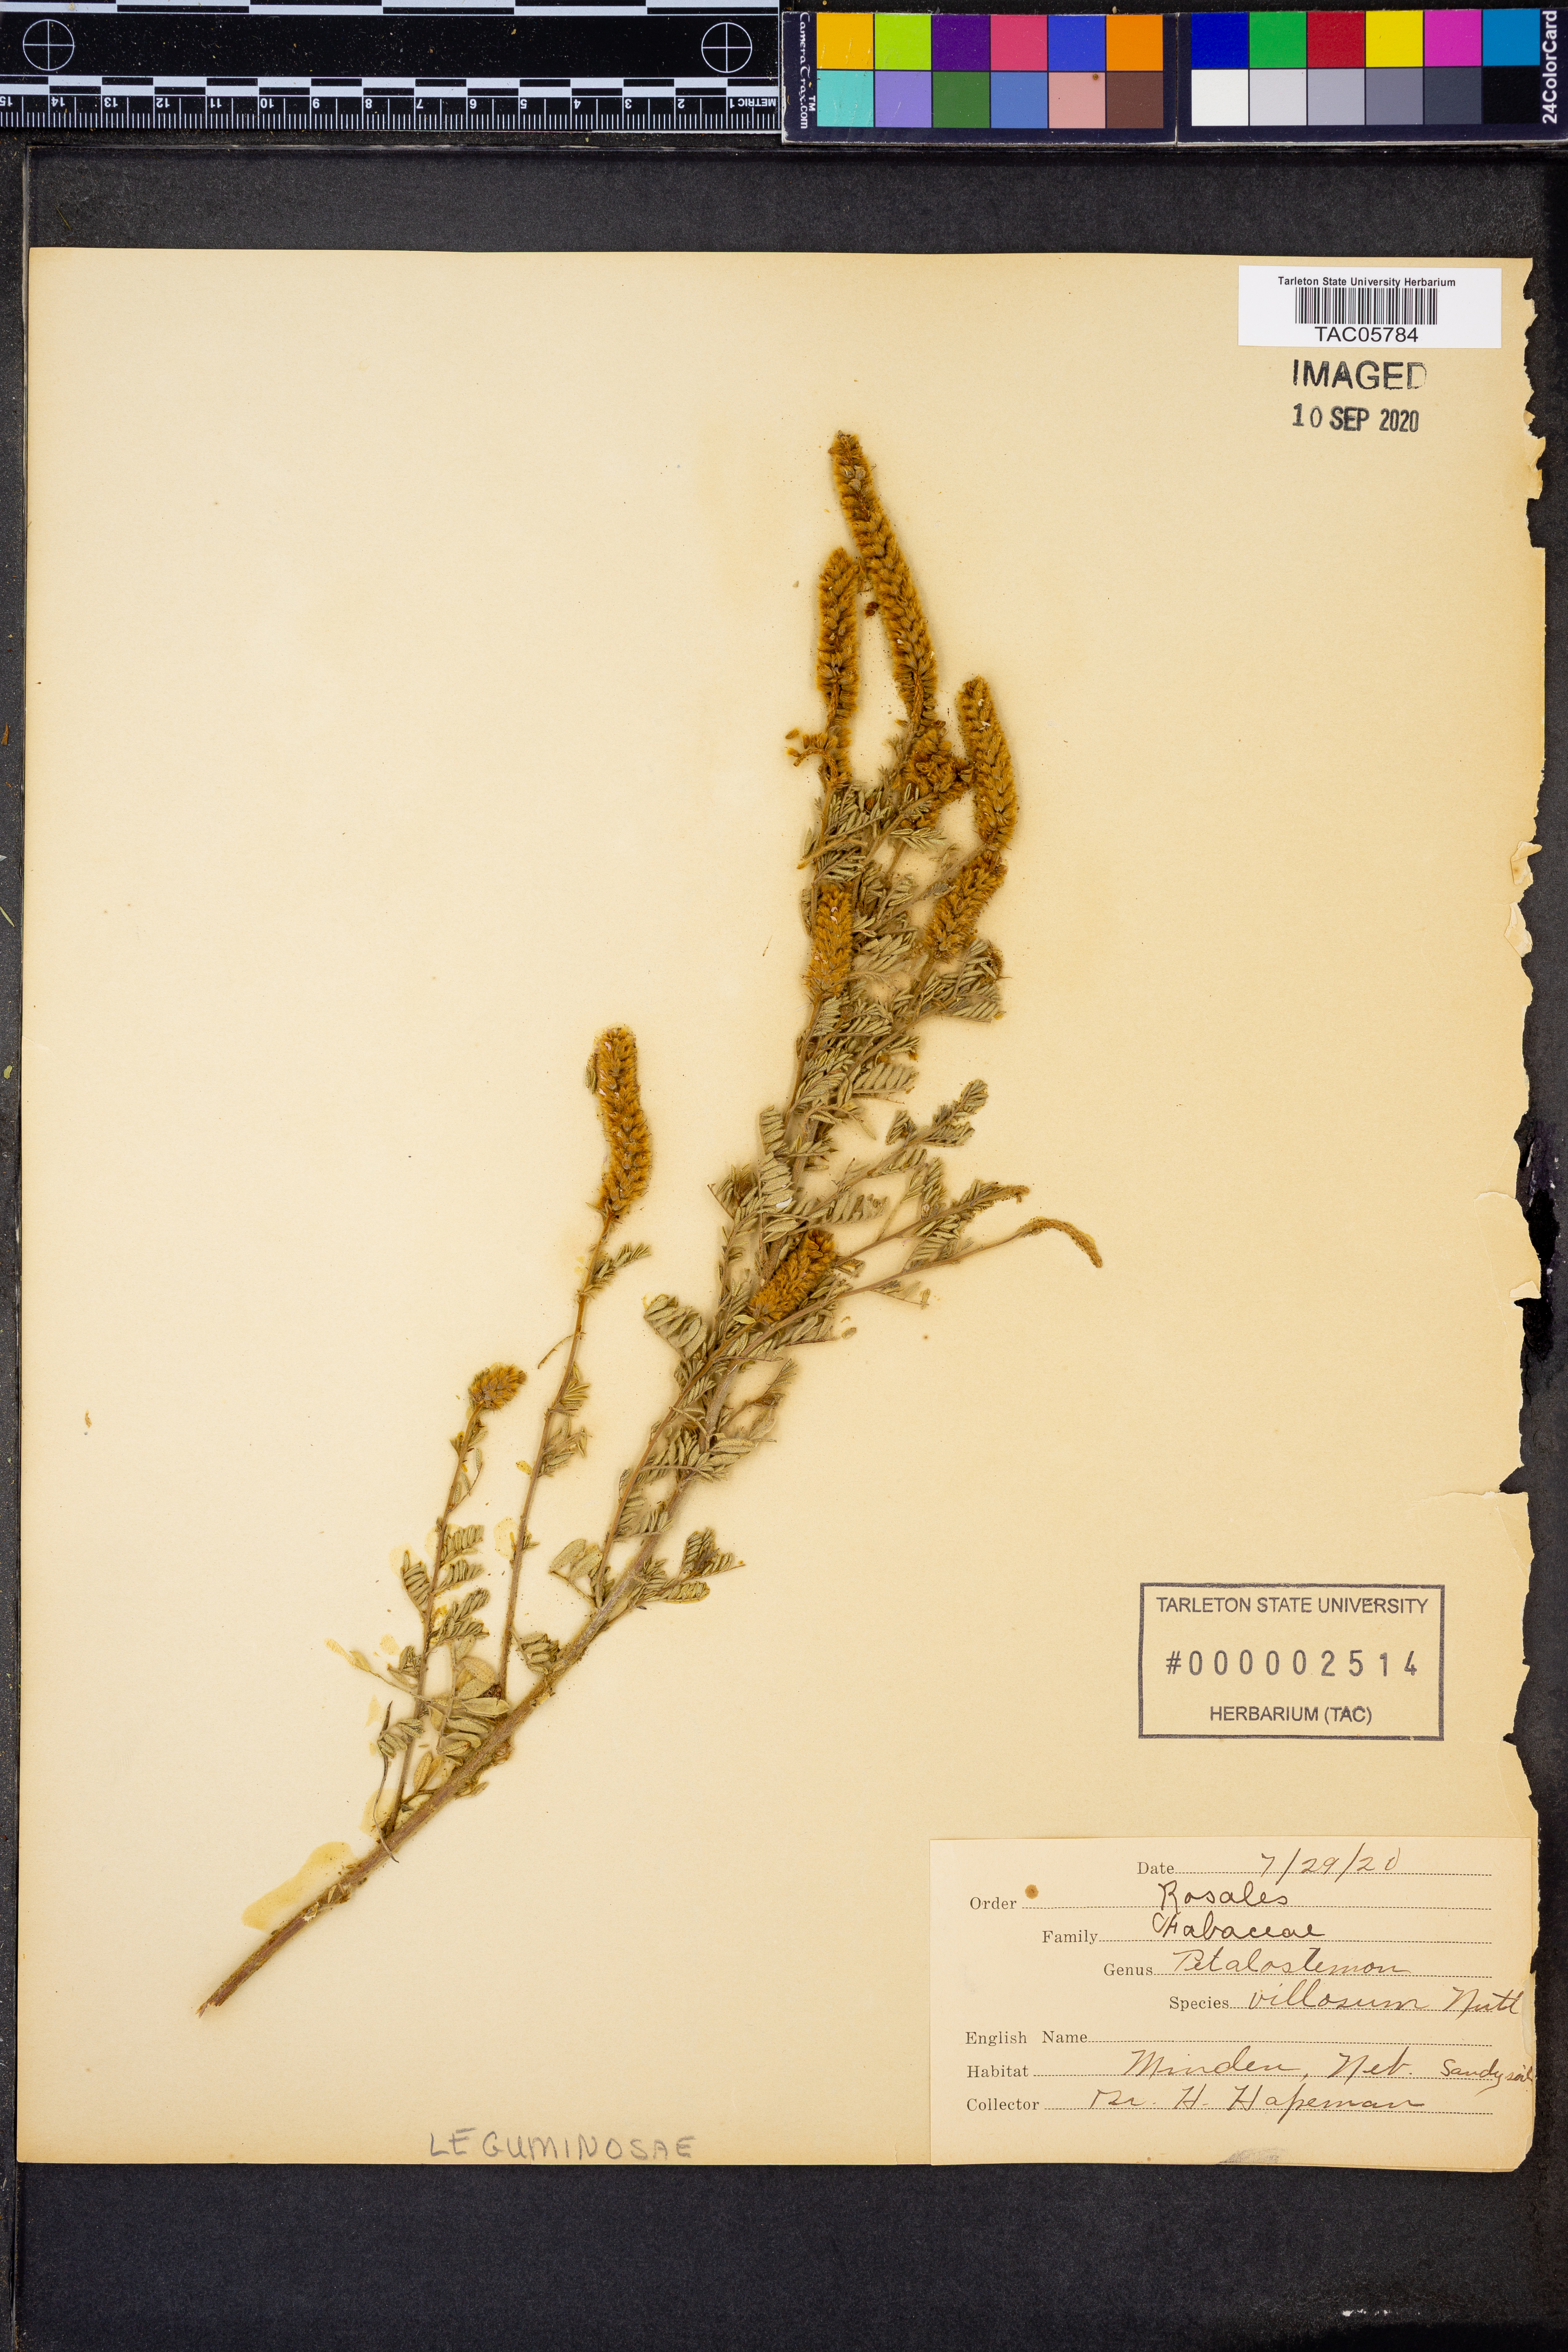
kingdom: Plantae
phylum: Tracheophyta
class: Magnoliopsida
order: Fabales
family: Fabaceae
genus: Dalea
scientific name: Dalea villosa
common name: Silky prairie-clover
